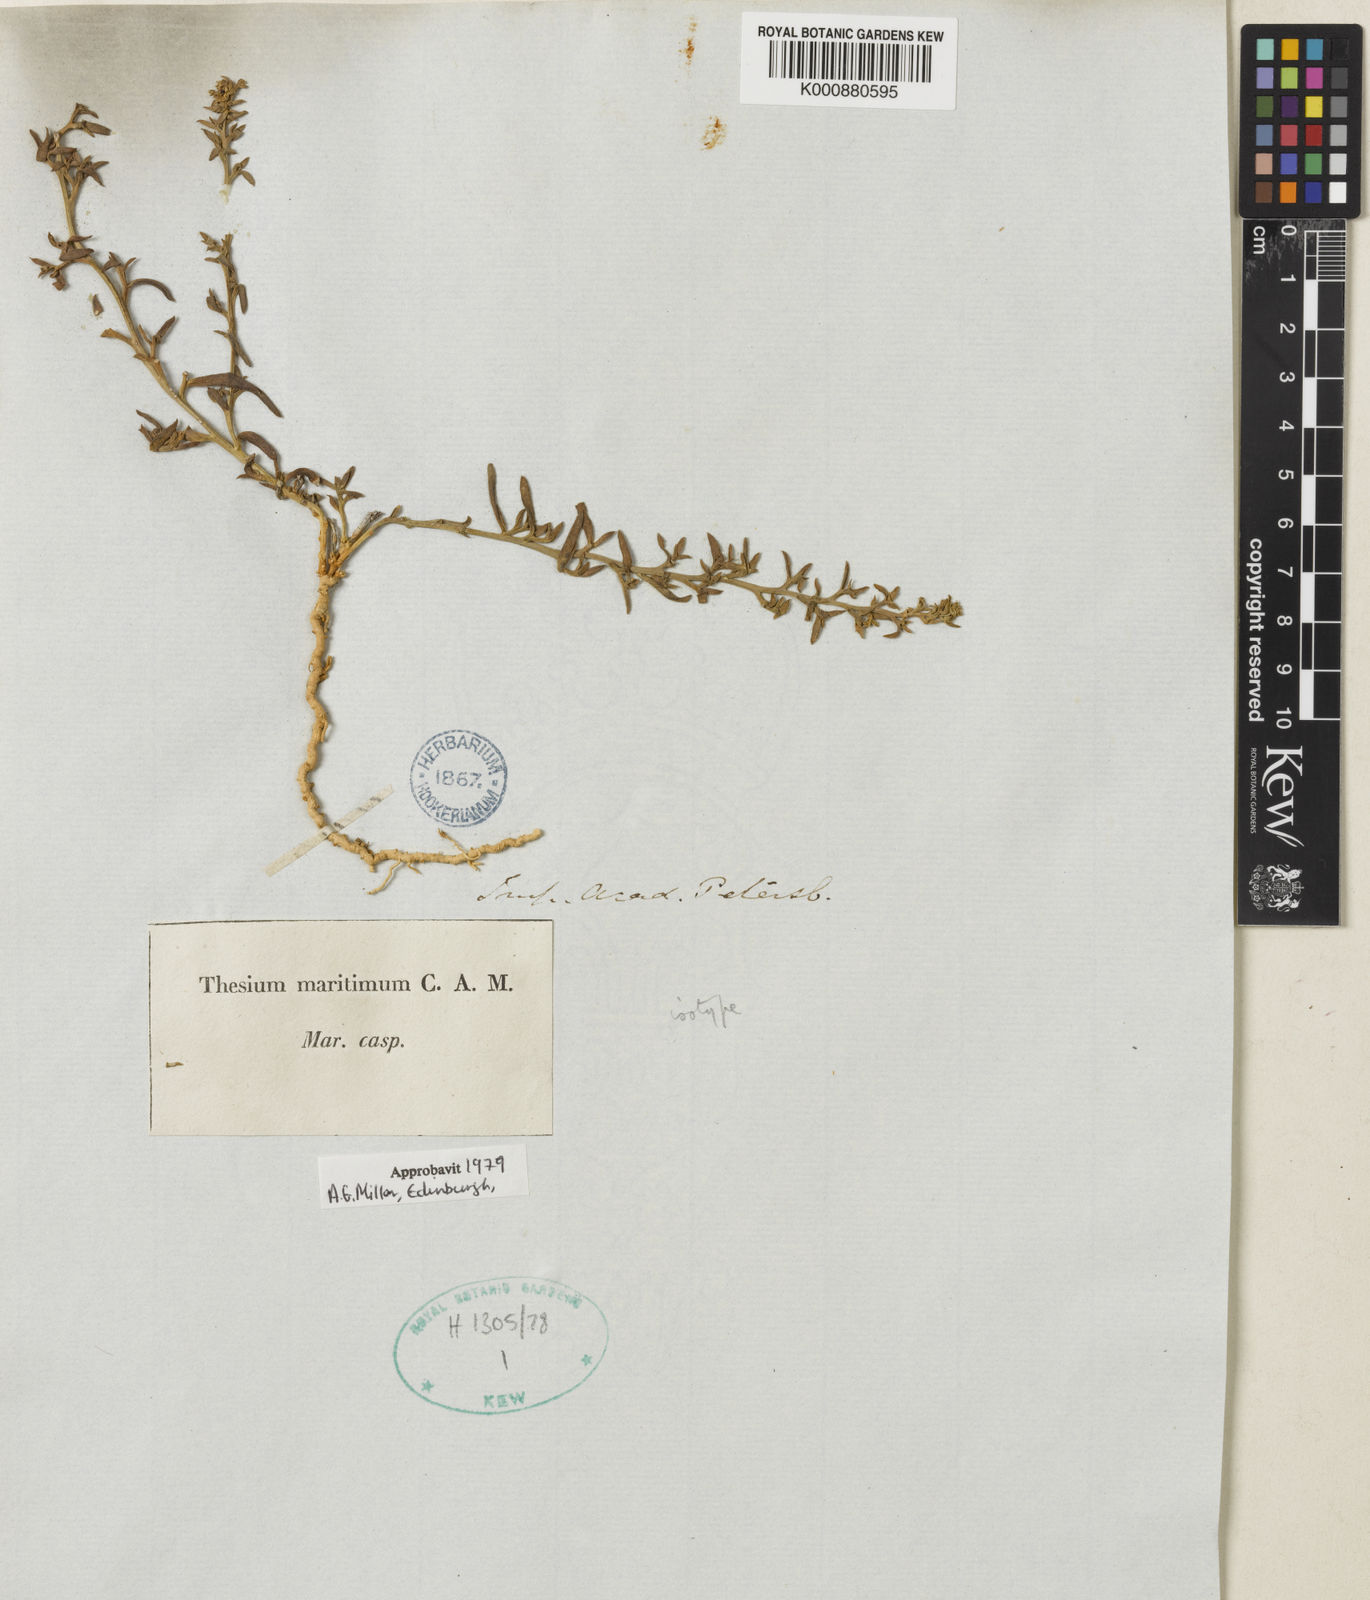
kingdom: Plantae
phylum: Tracheophyta
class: Magnoliopsida
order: Santalales
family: Thesiaceae
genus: Thesium
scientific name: Thesium maritimum
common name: Coastal bastard toad-flax
